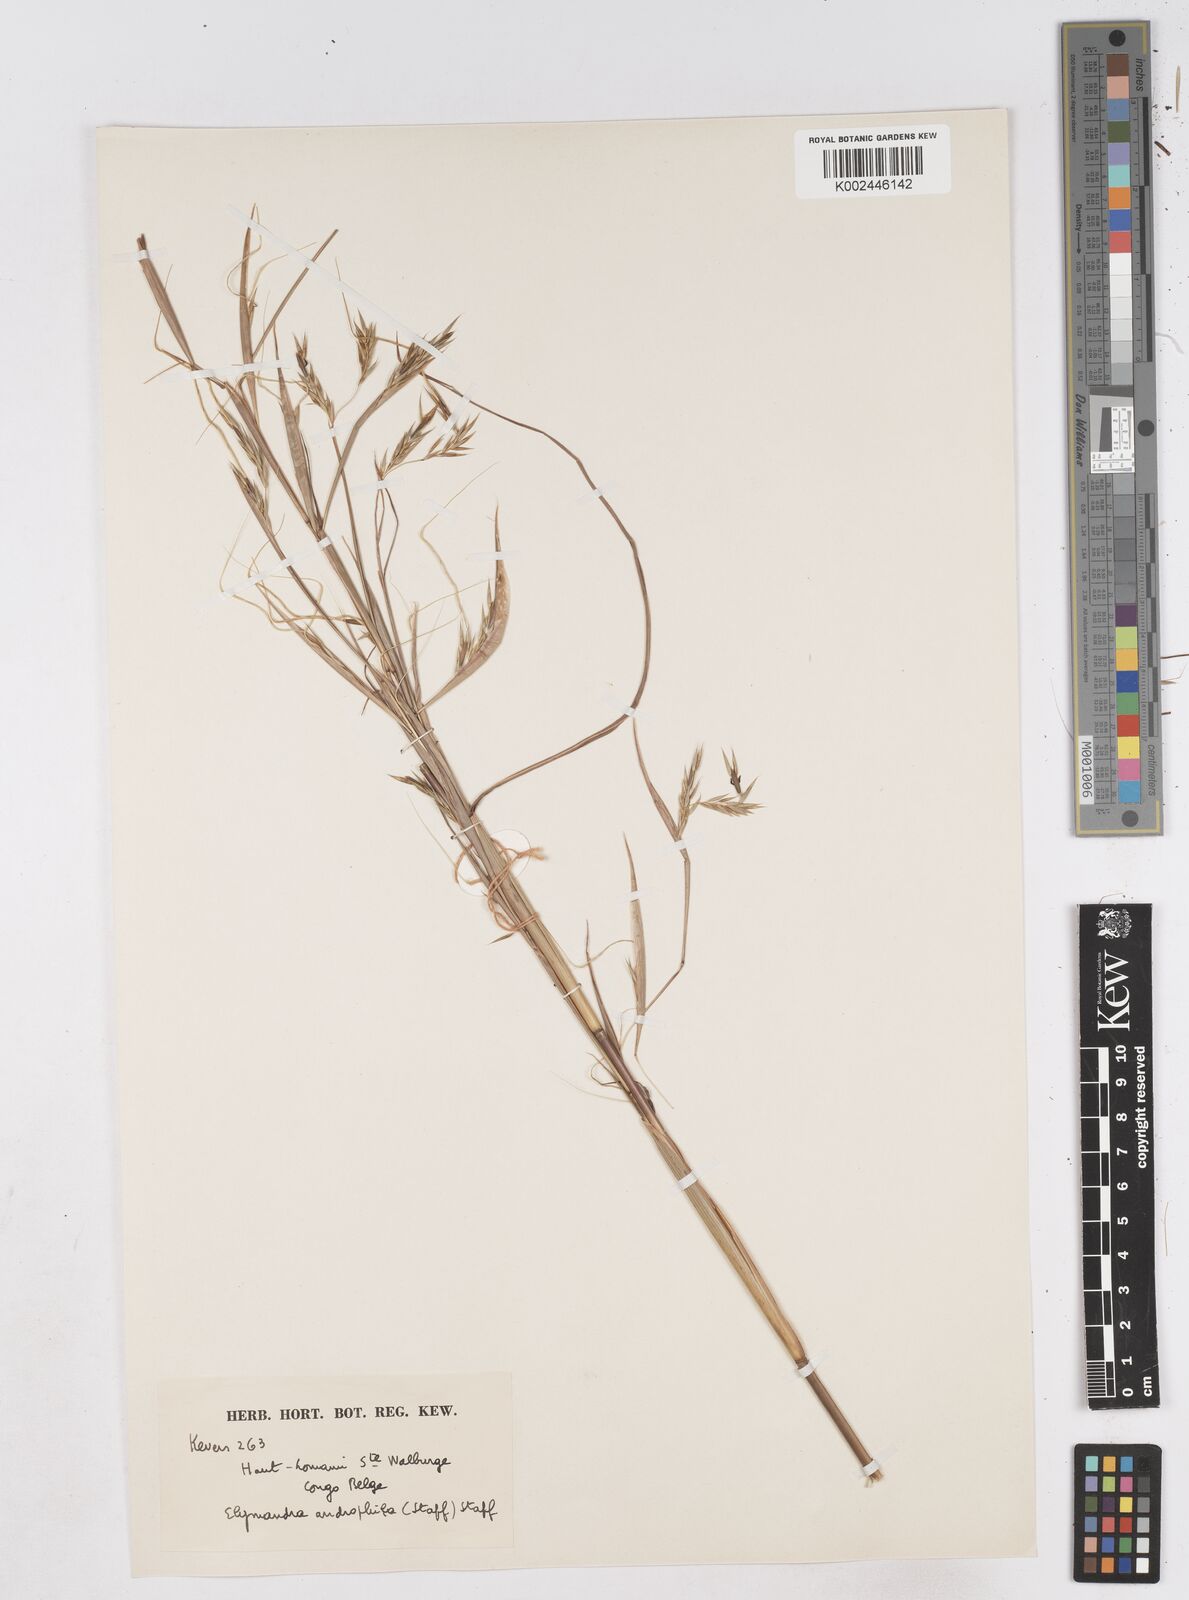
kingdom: Plantae
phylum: Tracheophyta
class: Liliopsida
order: Poales
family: Poaceae
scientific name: Poaceae
